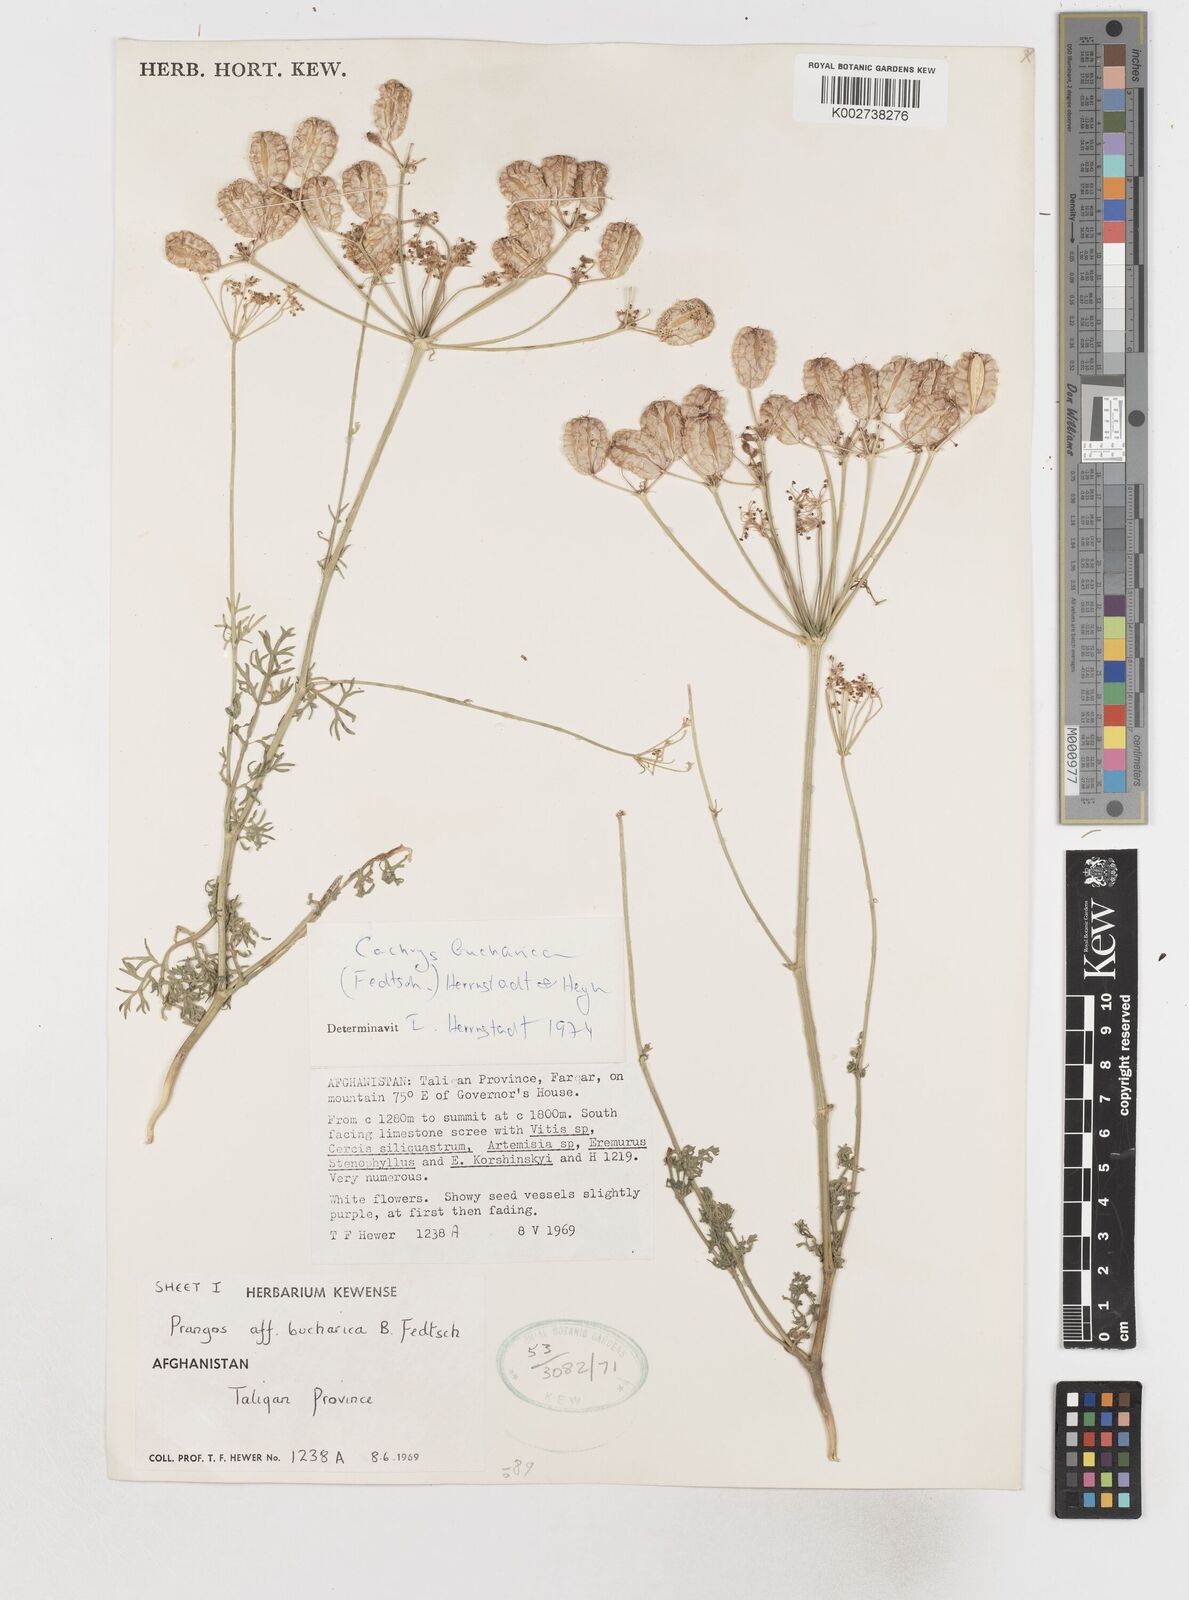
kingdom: Plantae
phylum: Tracheophyta
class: Magnoliopsida
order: Apiales
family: Apiaceae
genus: Prangos
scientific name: Prangos bucharica
